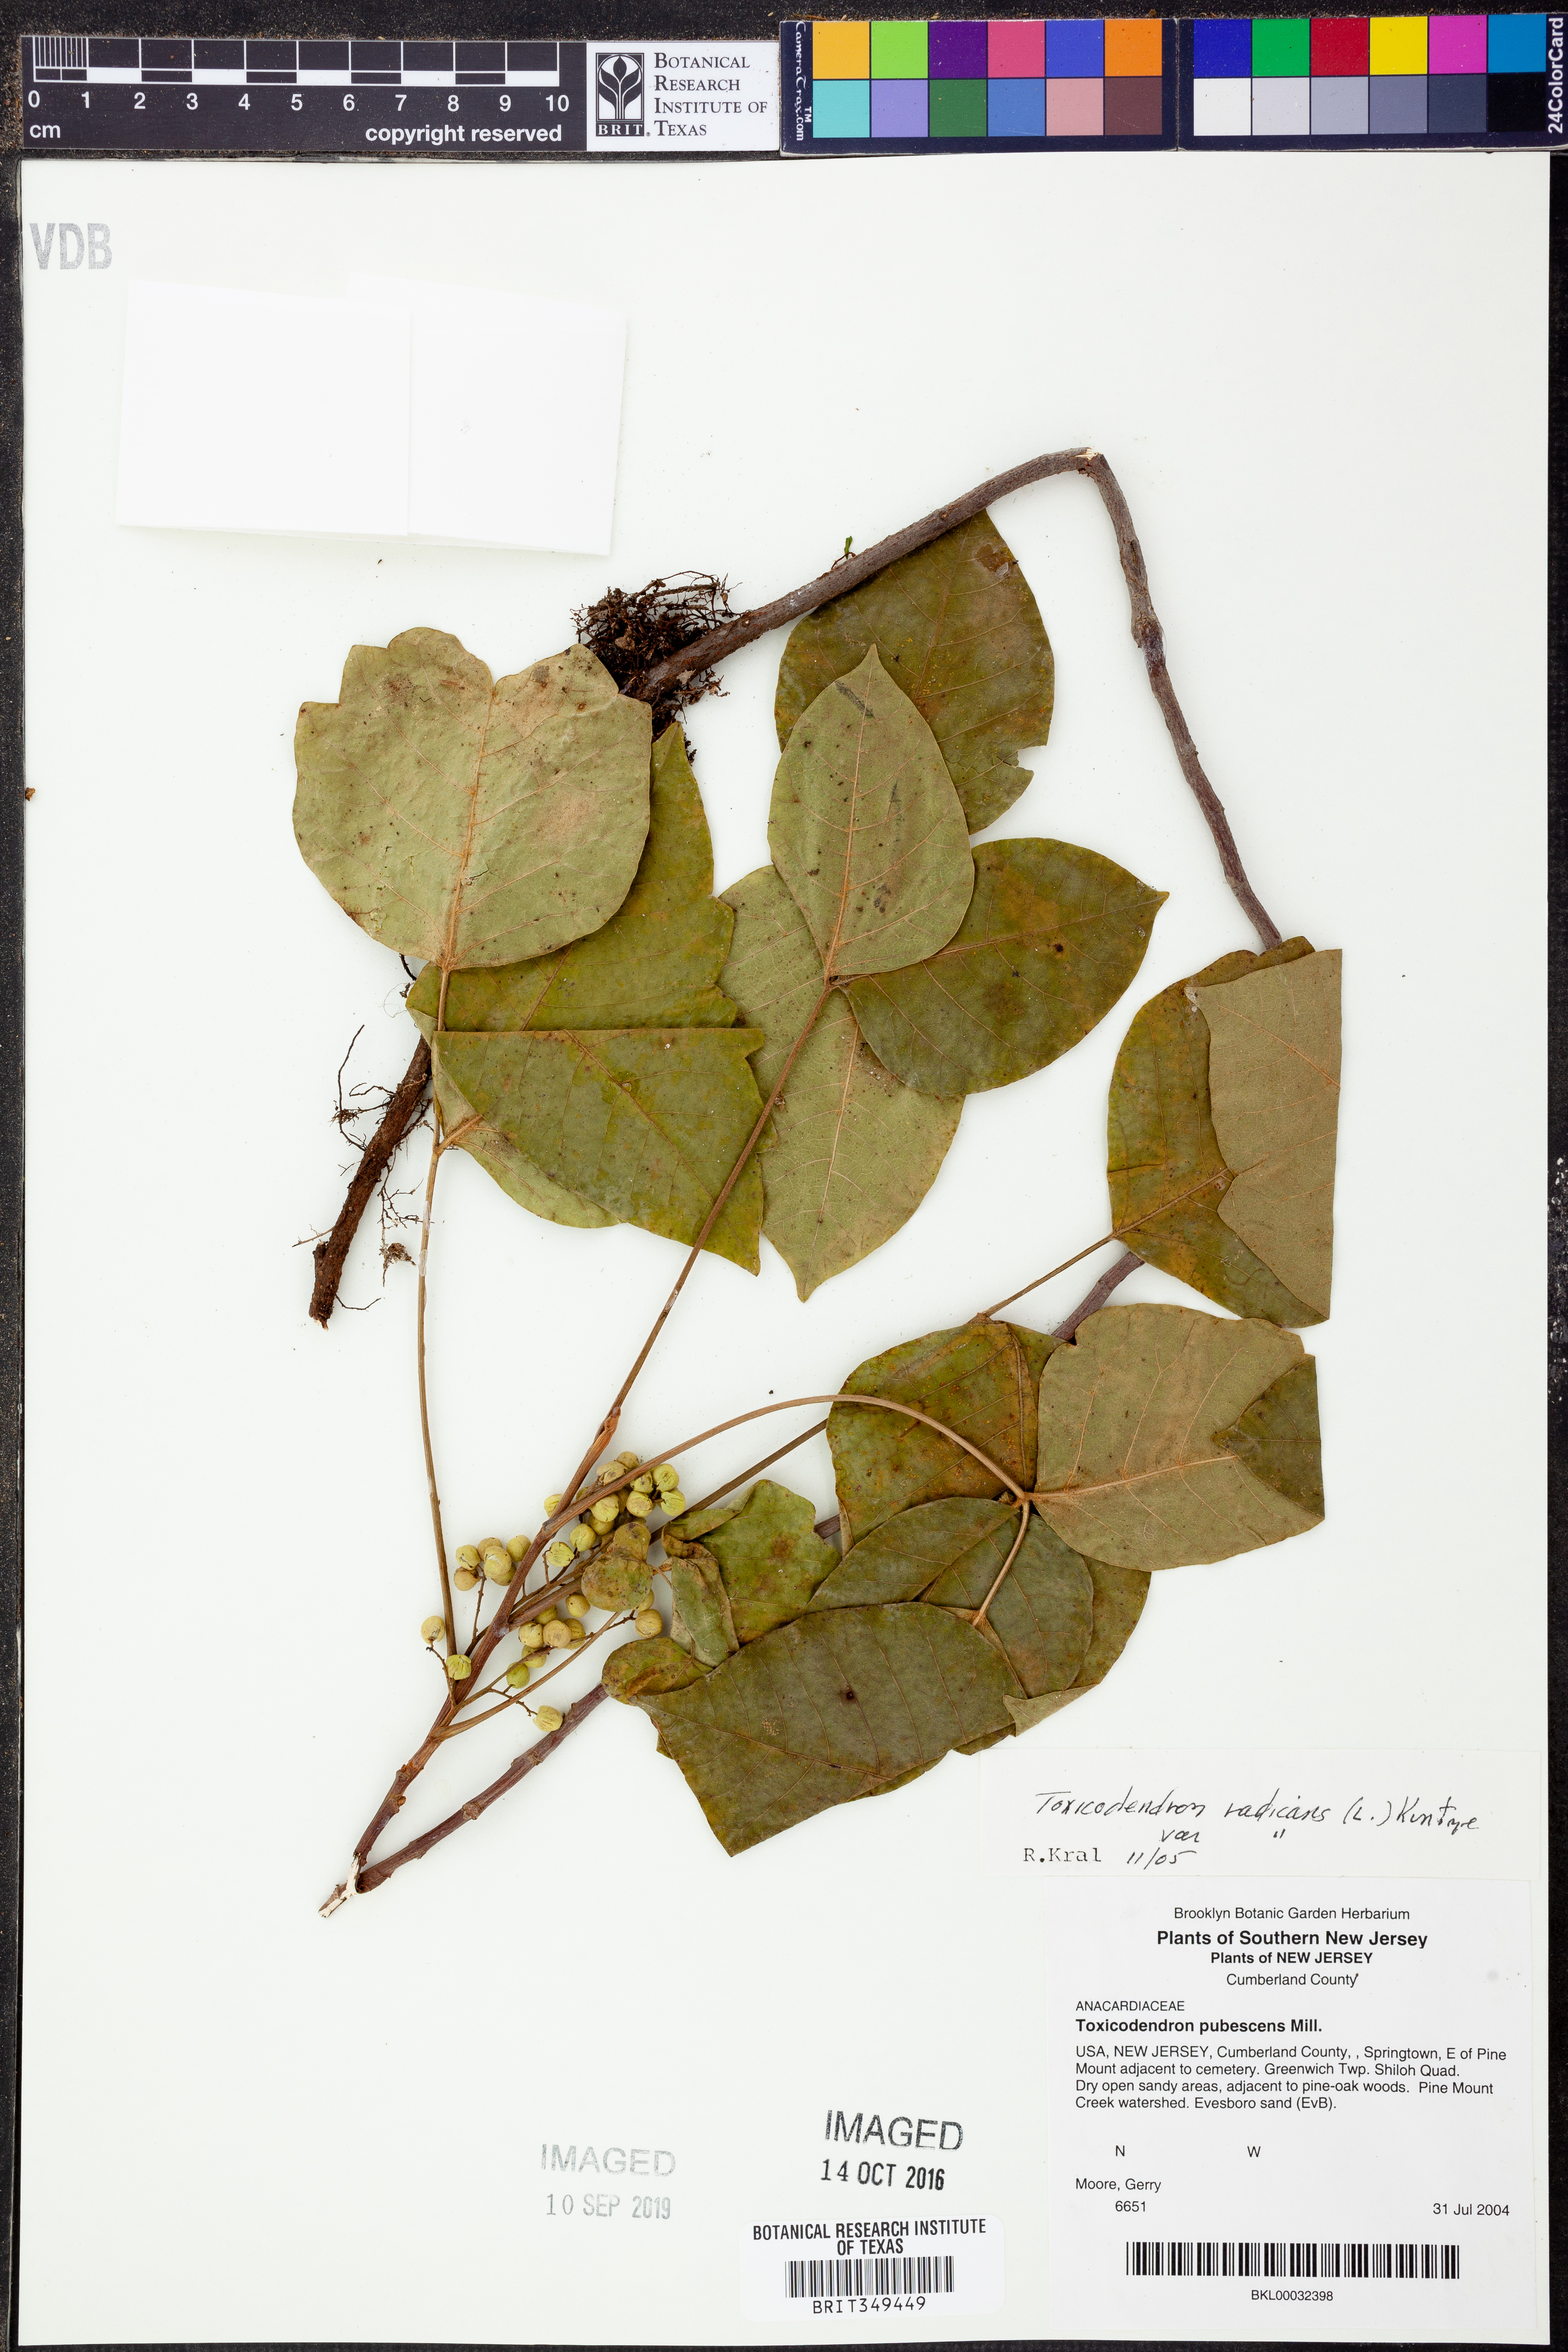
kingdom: Plantae
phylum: Tracheophyta
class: Magnoliopsida
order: Sapindales
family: Anacardiaceae
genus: Toxicodendron
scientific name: Toxicodendron radicans
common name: Poison ivy
